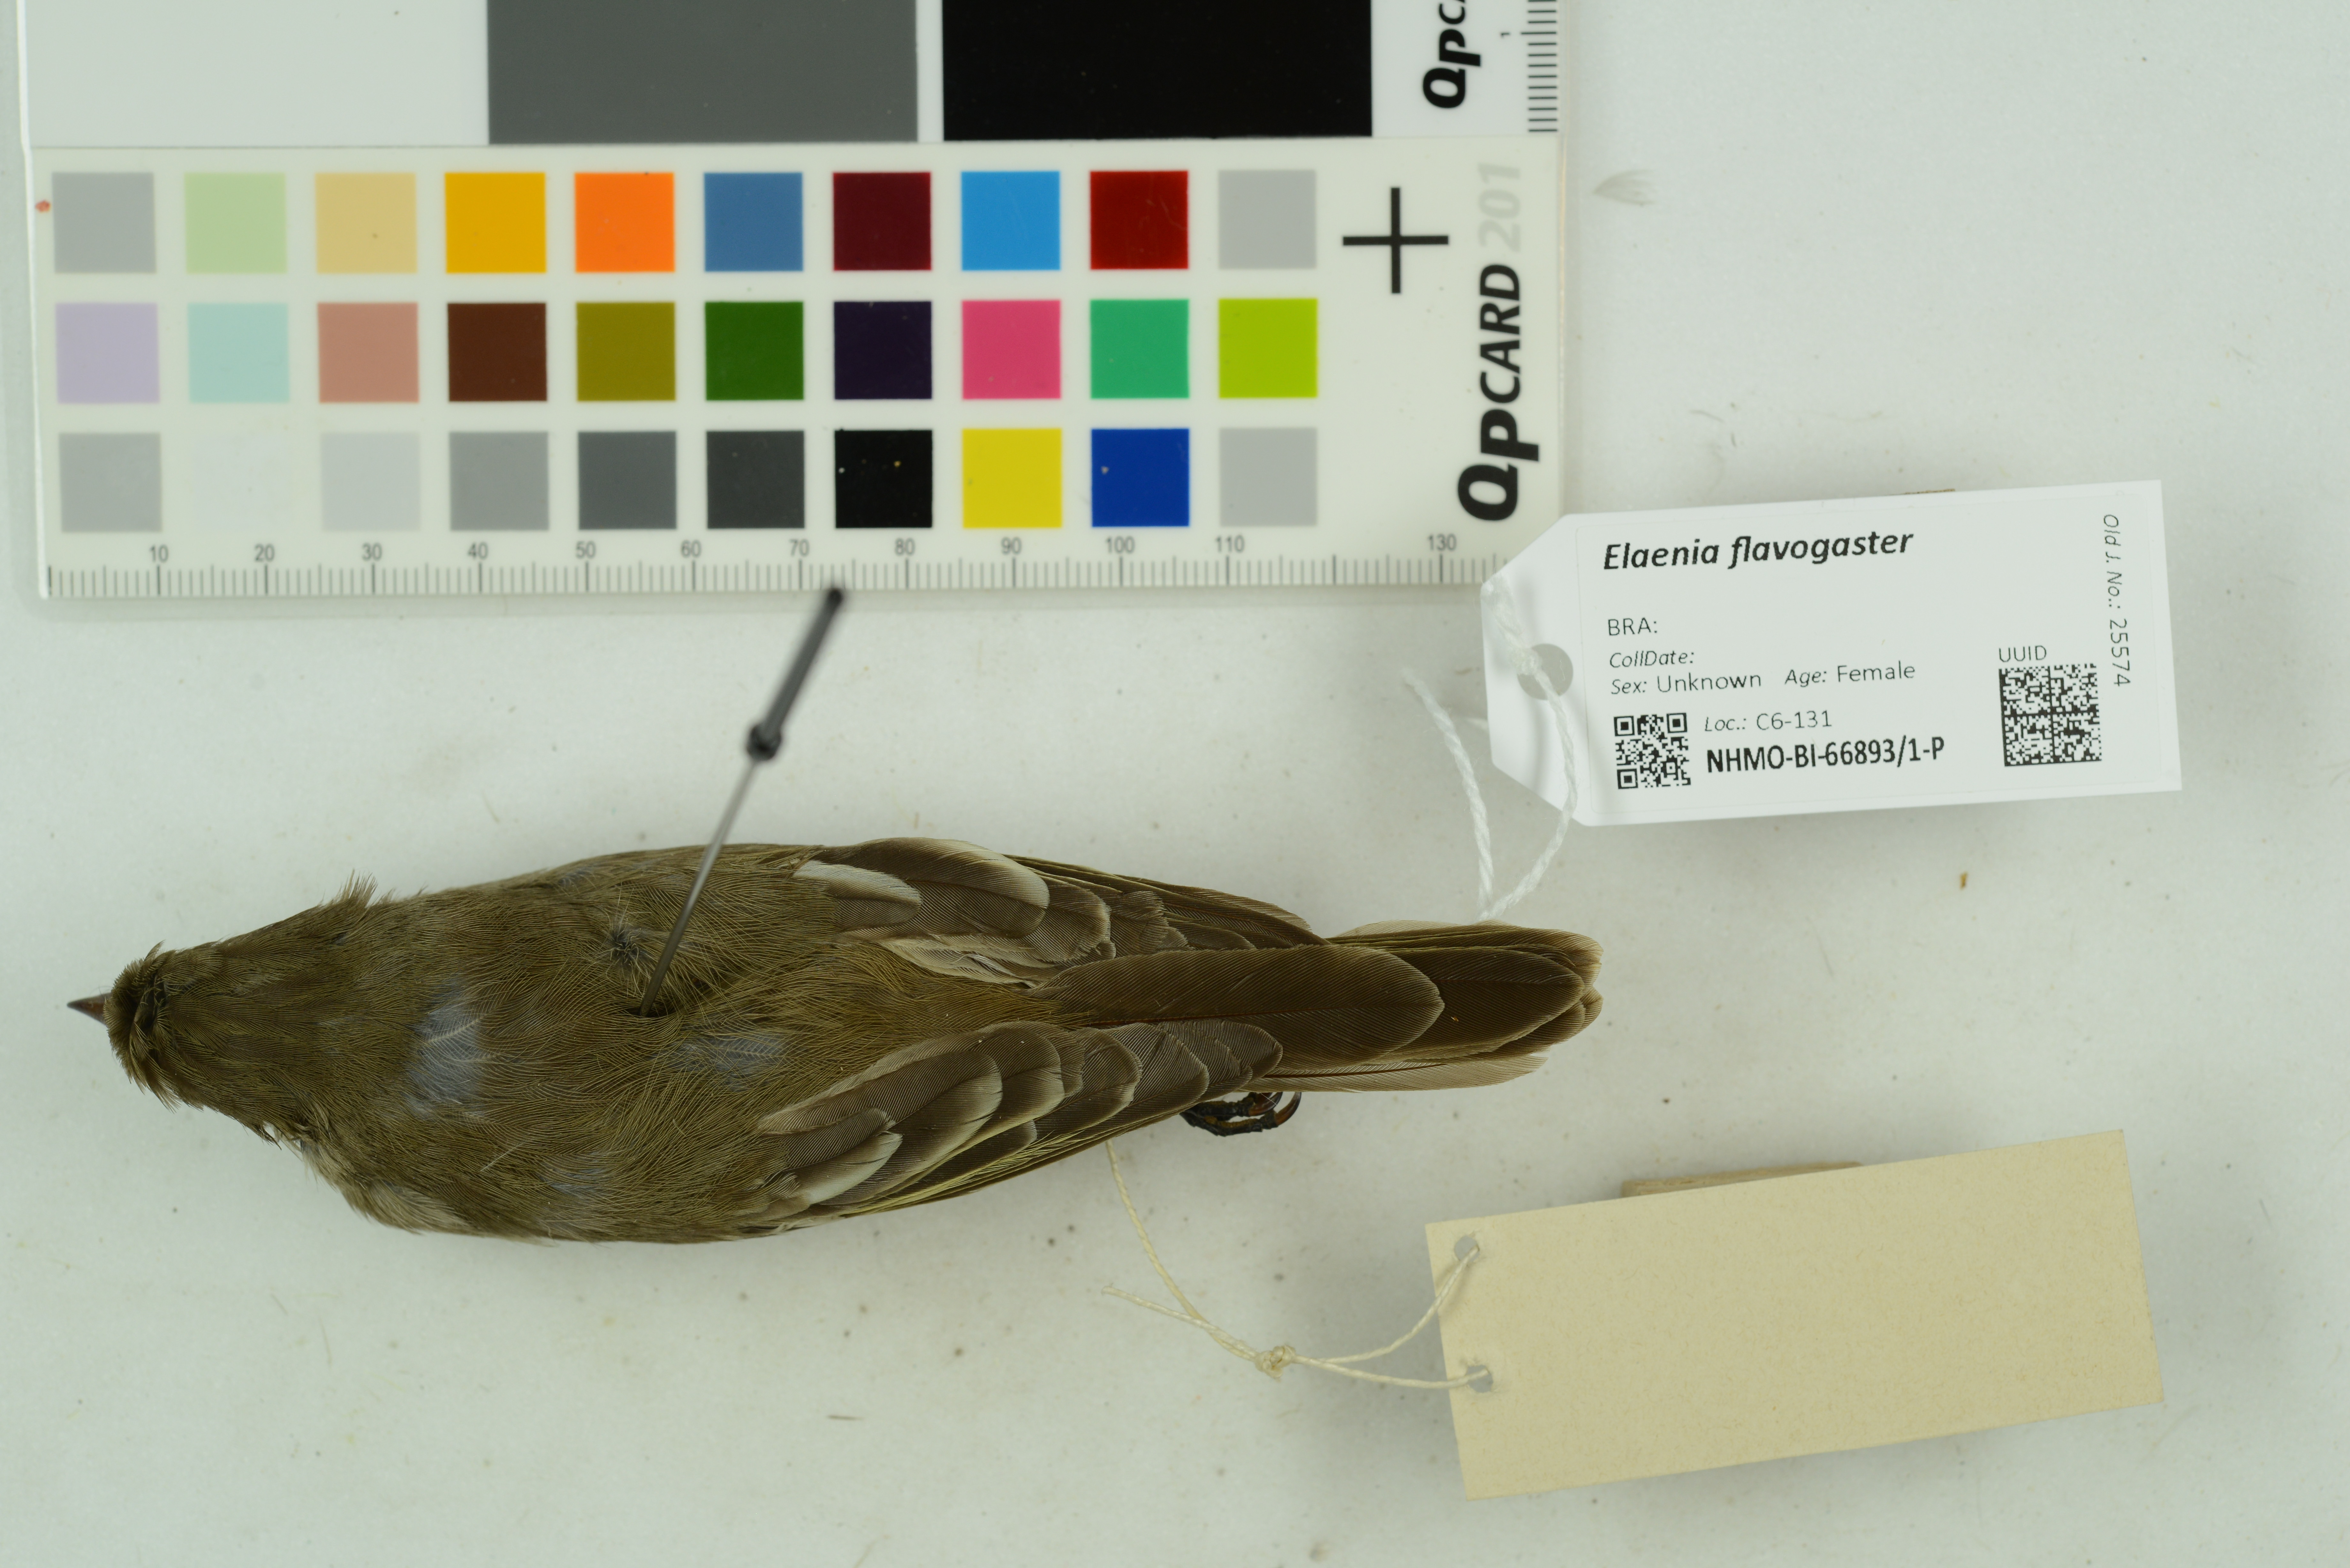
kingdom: Animalia
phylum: Chordata
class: Aves
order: Passeriformes
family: Tyrannidae
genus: Elaenia
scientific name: Elaenia flavogaster
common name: Yellow-bellied elaenia
